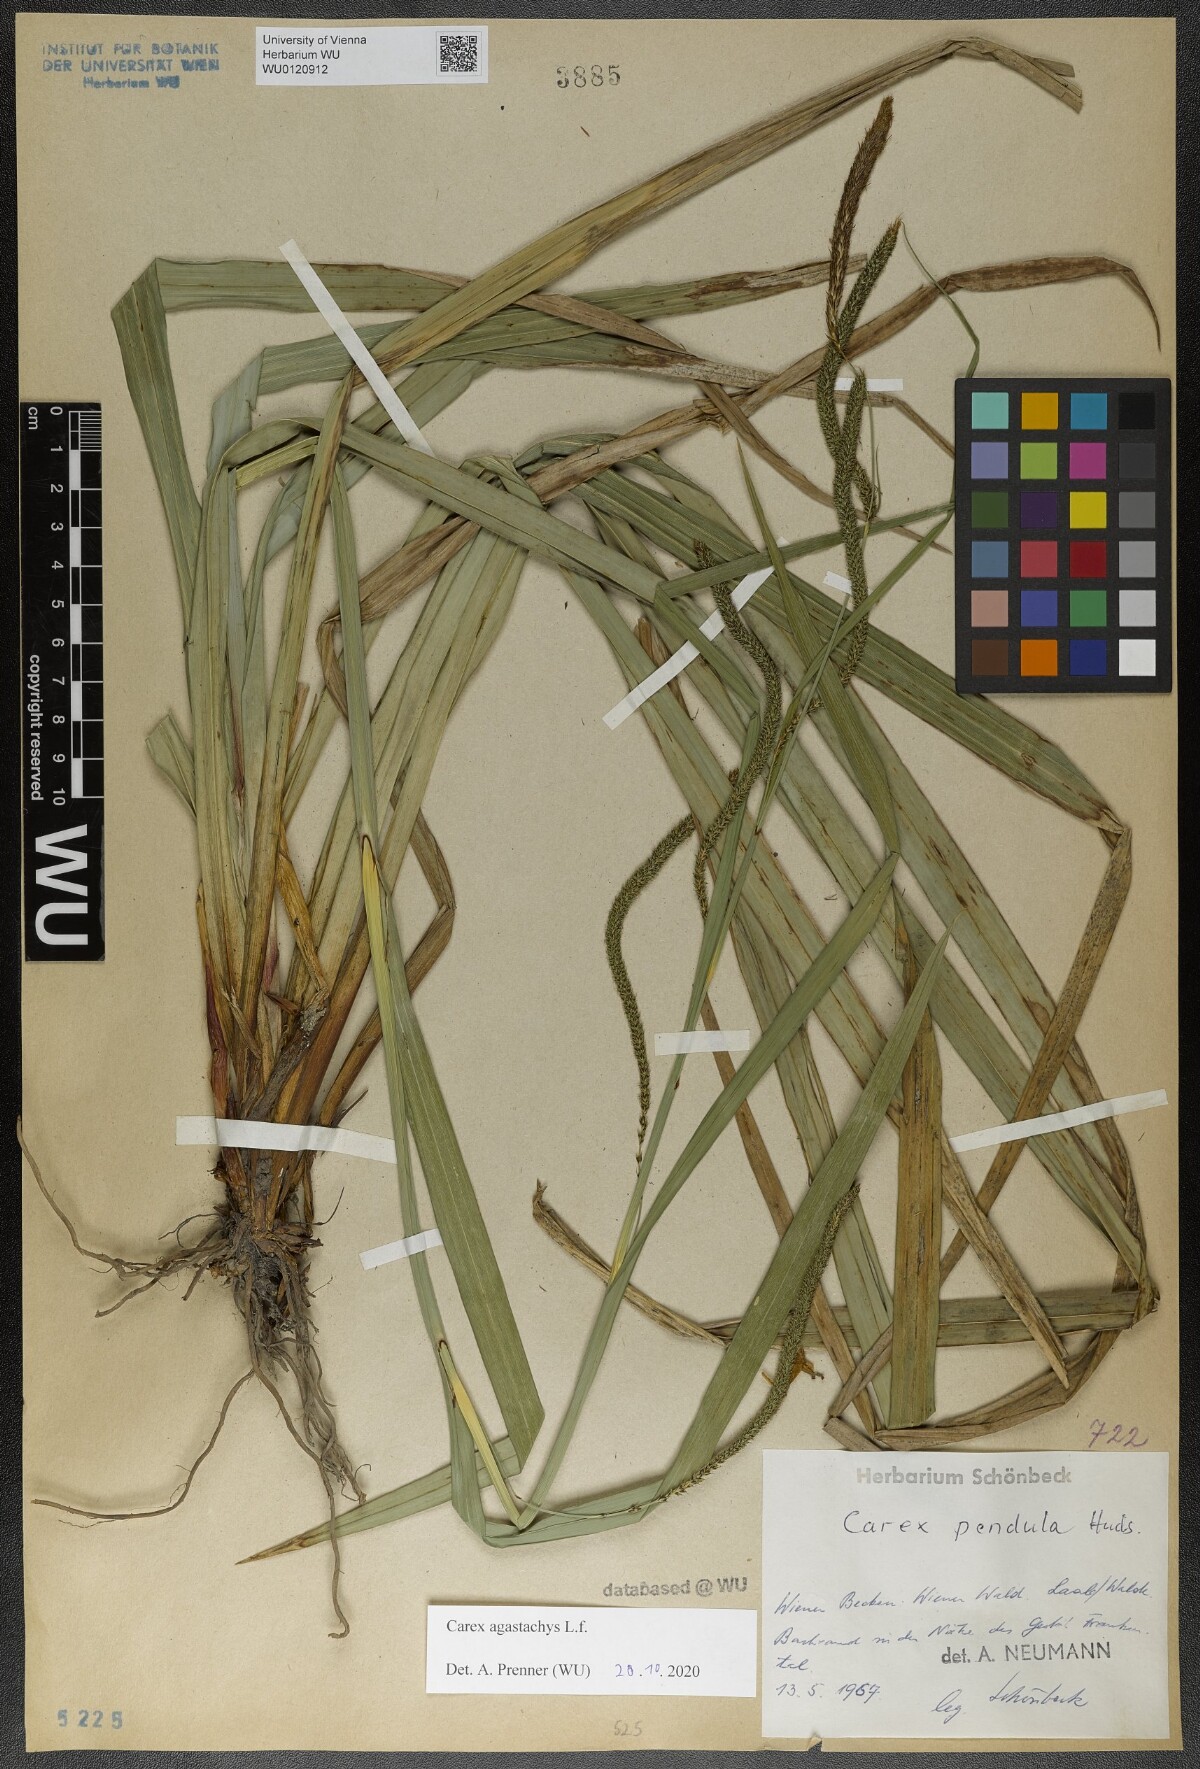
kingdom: Plantae
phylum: Tracheophyta
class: Liliopsida
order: Poales
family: Cyperaceae
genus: Carex
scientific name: Carex agastachys
